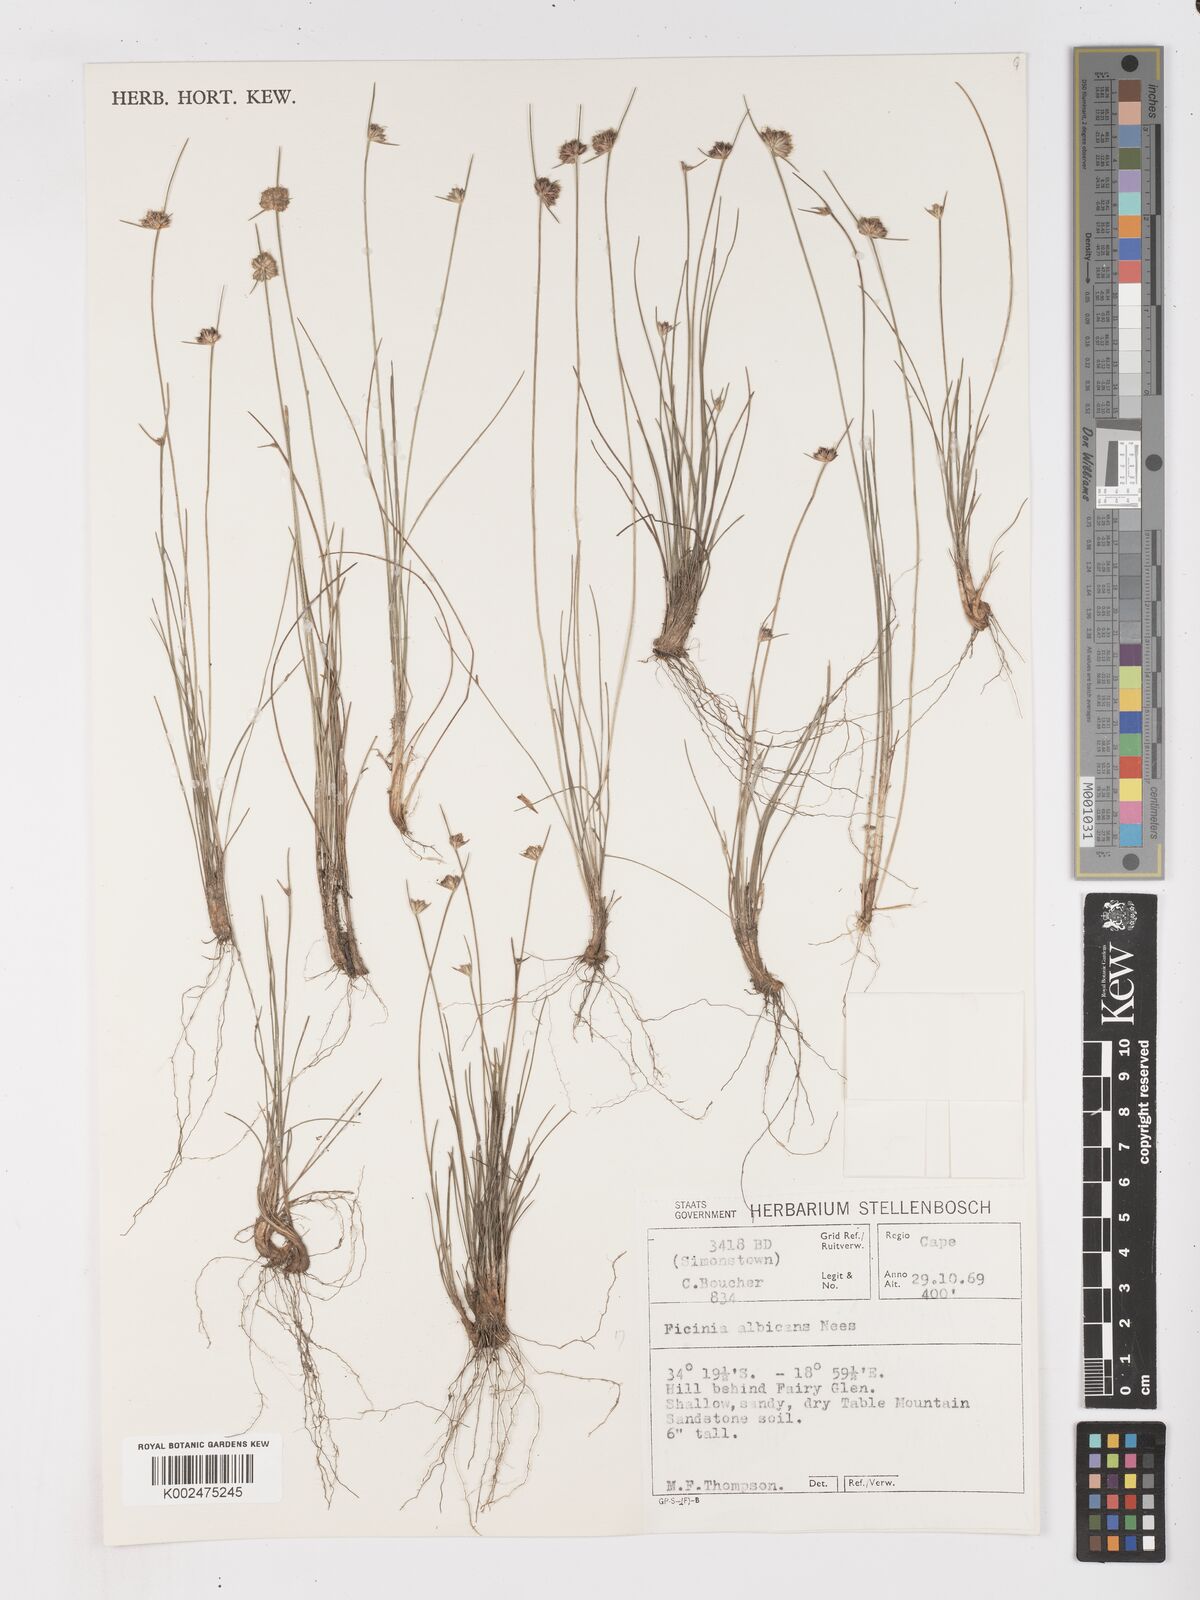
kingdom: Plantae
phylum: Tracheophyta
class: Liliopsida
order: Poales
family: Cyperaceae
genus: Ficinia
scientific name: Ficinia albicans
